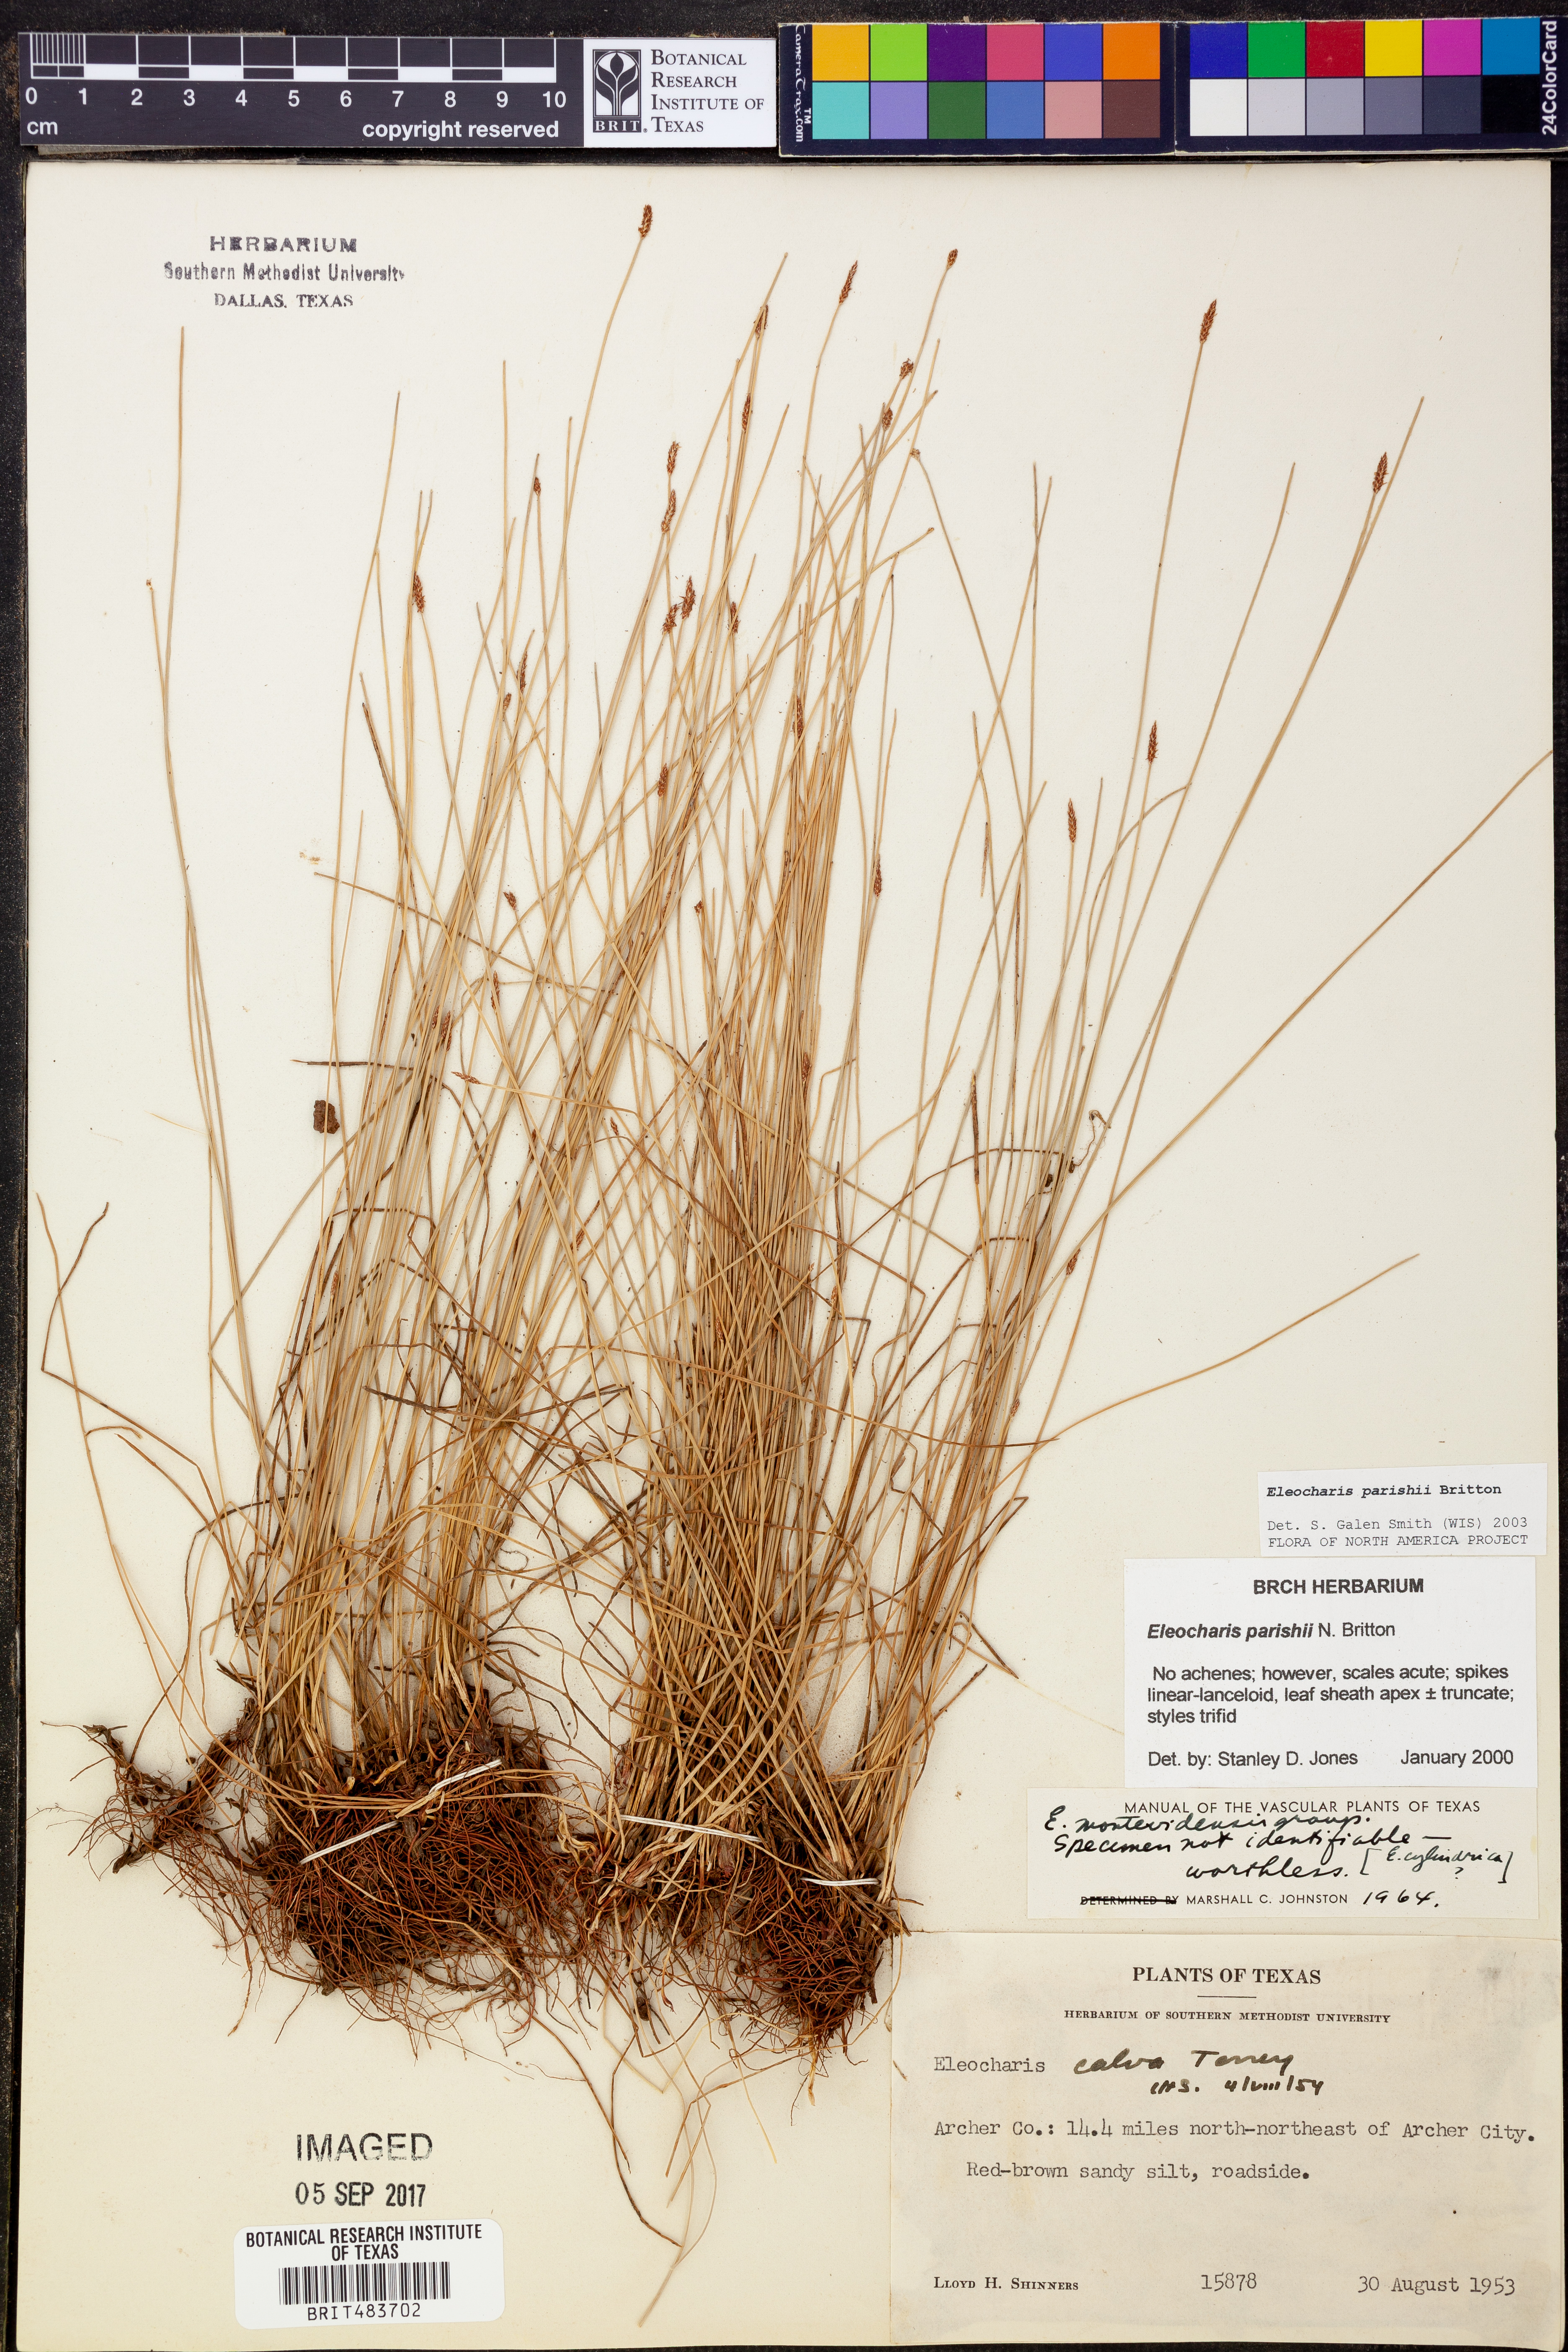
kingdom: Plantae
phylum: Tracheophyta
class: Liliopsida
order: Poales
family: Cyperaceae
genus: Eleocharis
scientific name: Eleocharis parishii
